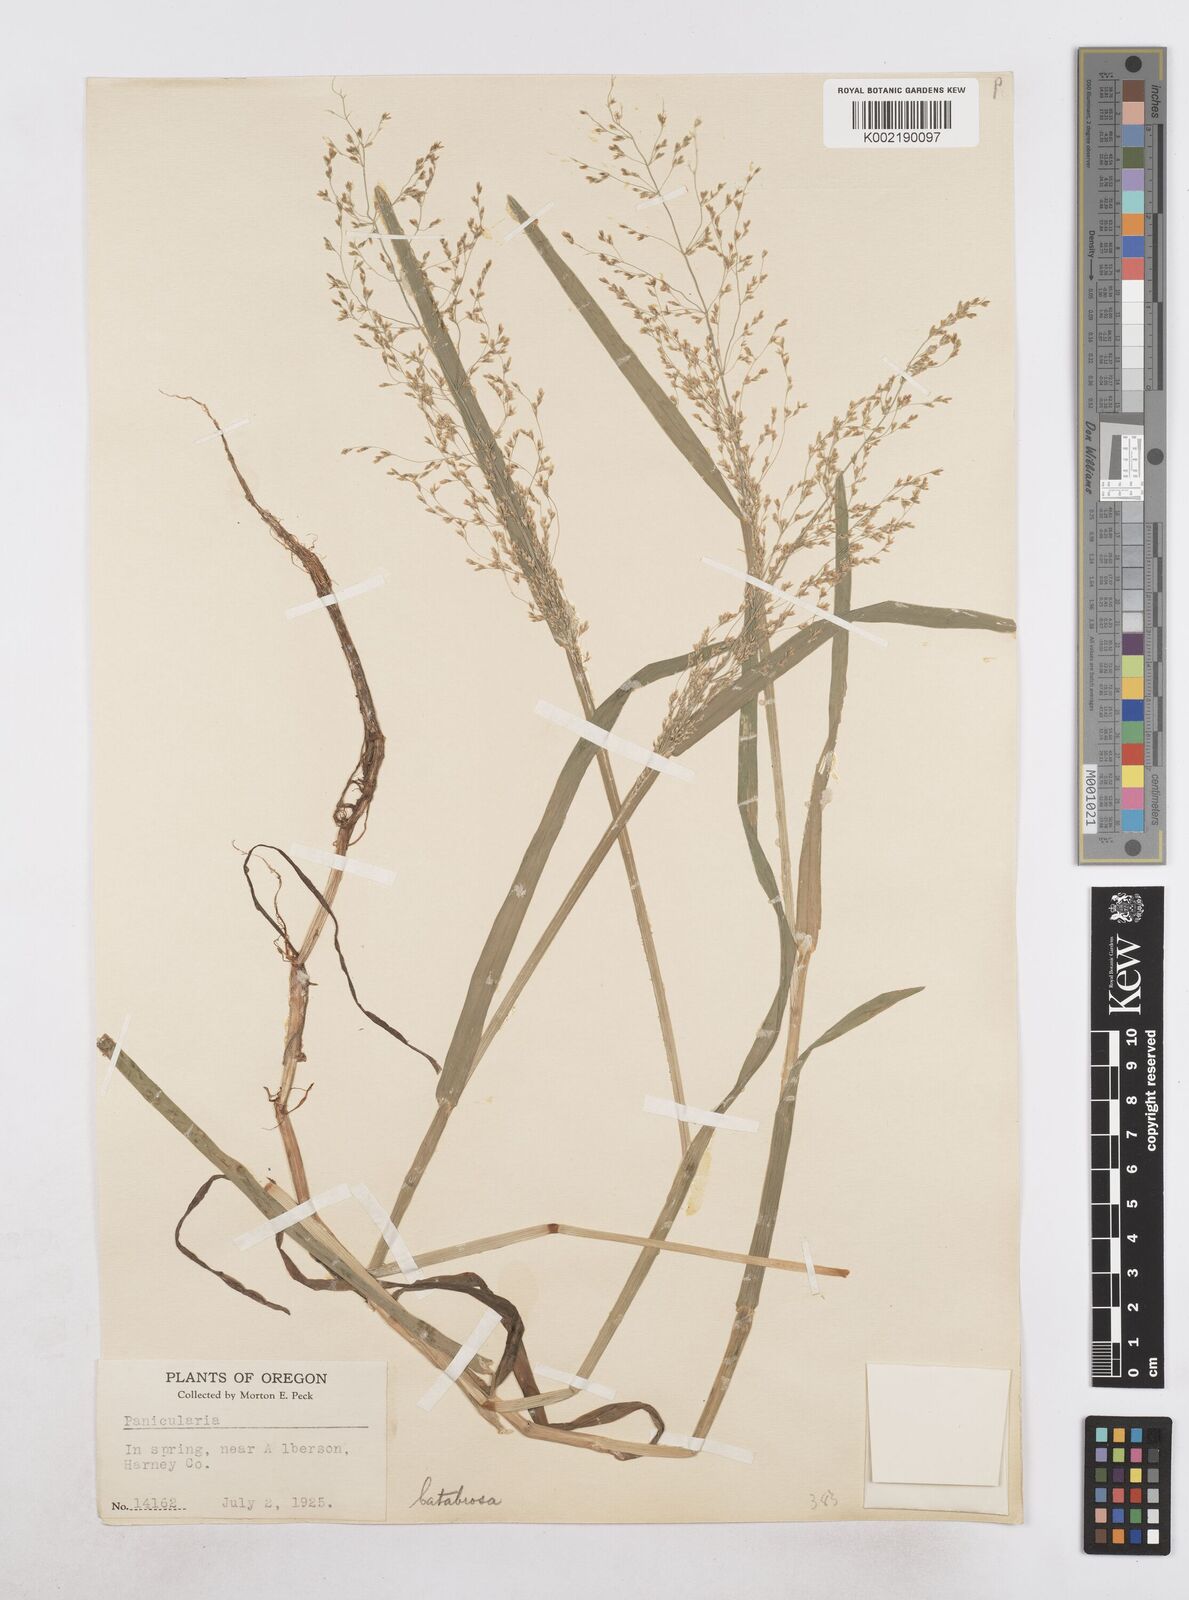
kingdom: Plantae
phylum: Tracheophyta
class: Liliopsida
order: Poales
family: Poaceae
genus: Catabrosa
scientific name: Catabrosa aquatica
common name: Whorl-grass
